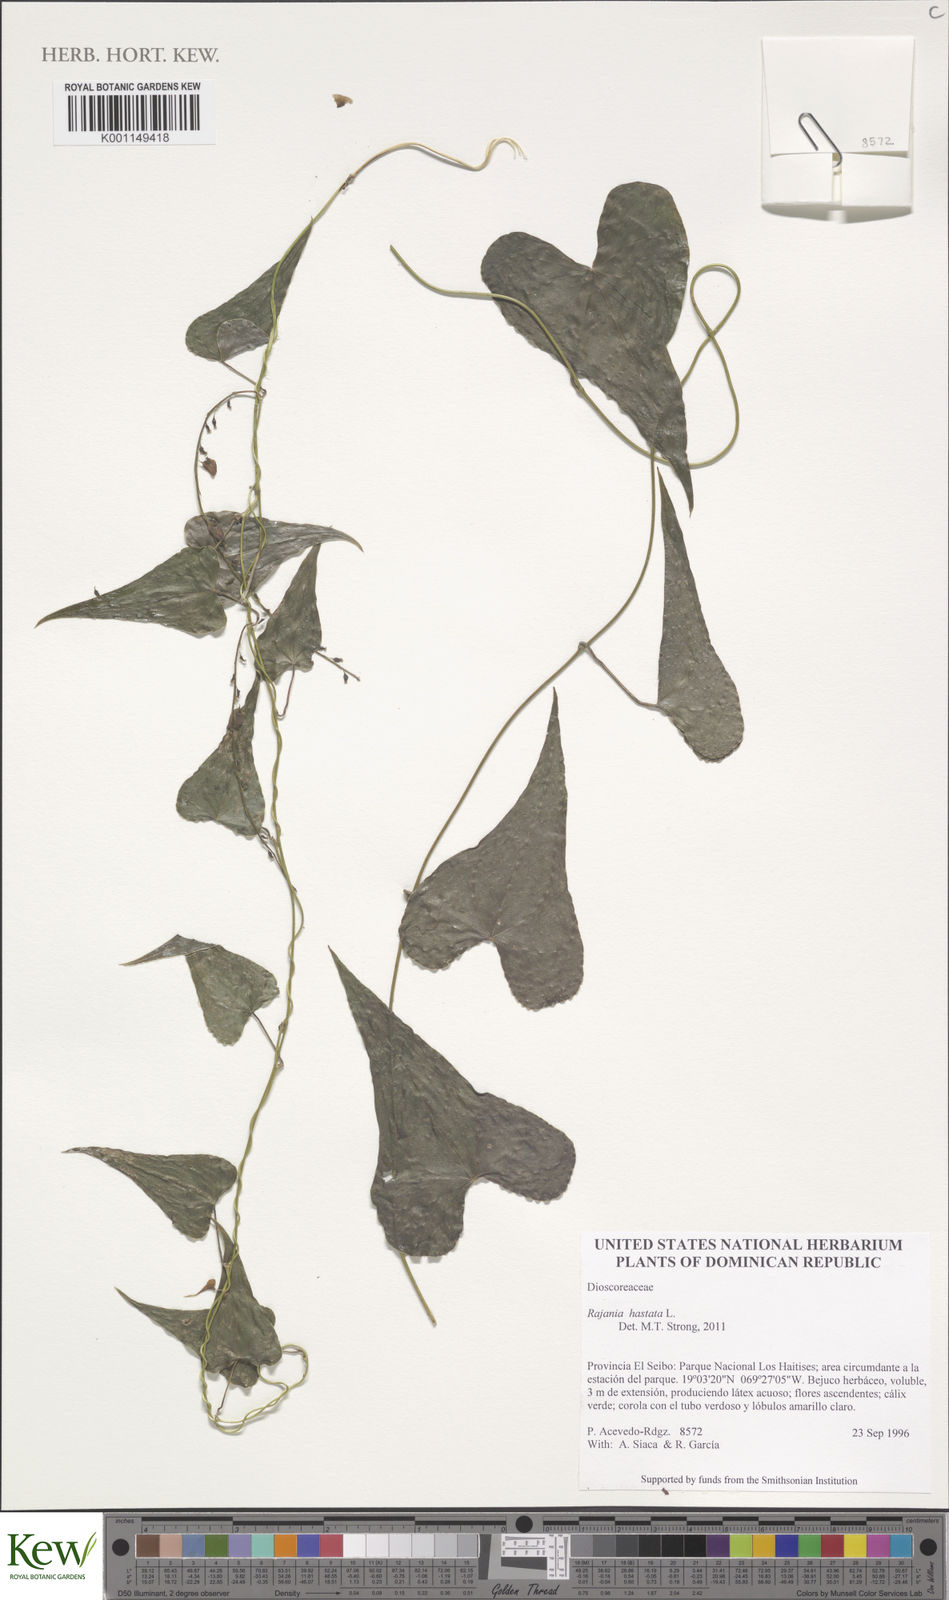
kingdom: Plantae
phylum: Tracheophyta
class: Liliopsida
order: Dioscoreales
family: Dioscoreaceae
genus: Dioscorea
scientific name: Dioscorea hastata
